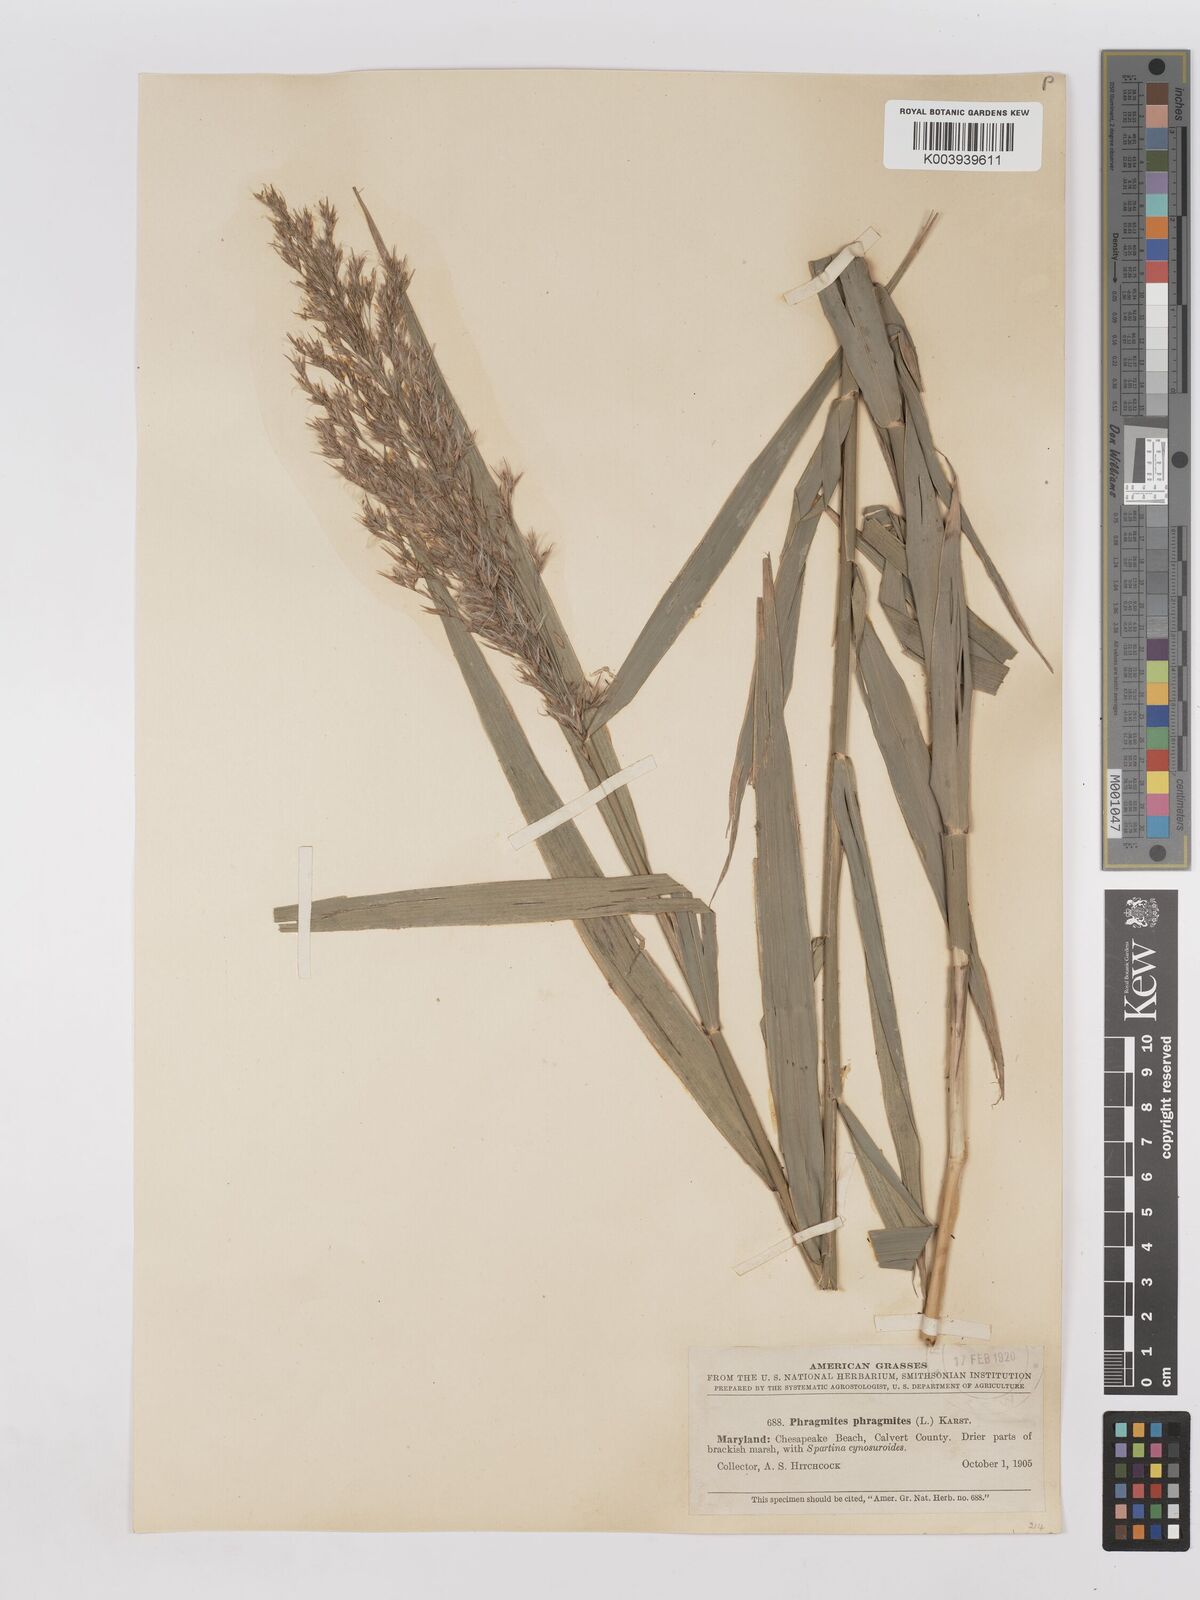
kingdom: Plantae
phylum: Tracheophyta
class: Liliopsida
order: Poales
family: Poaceae
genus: Phragmites
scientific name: Phragmites australis
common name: Common reed
